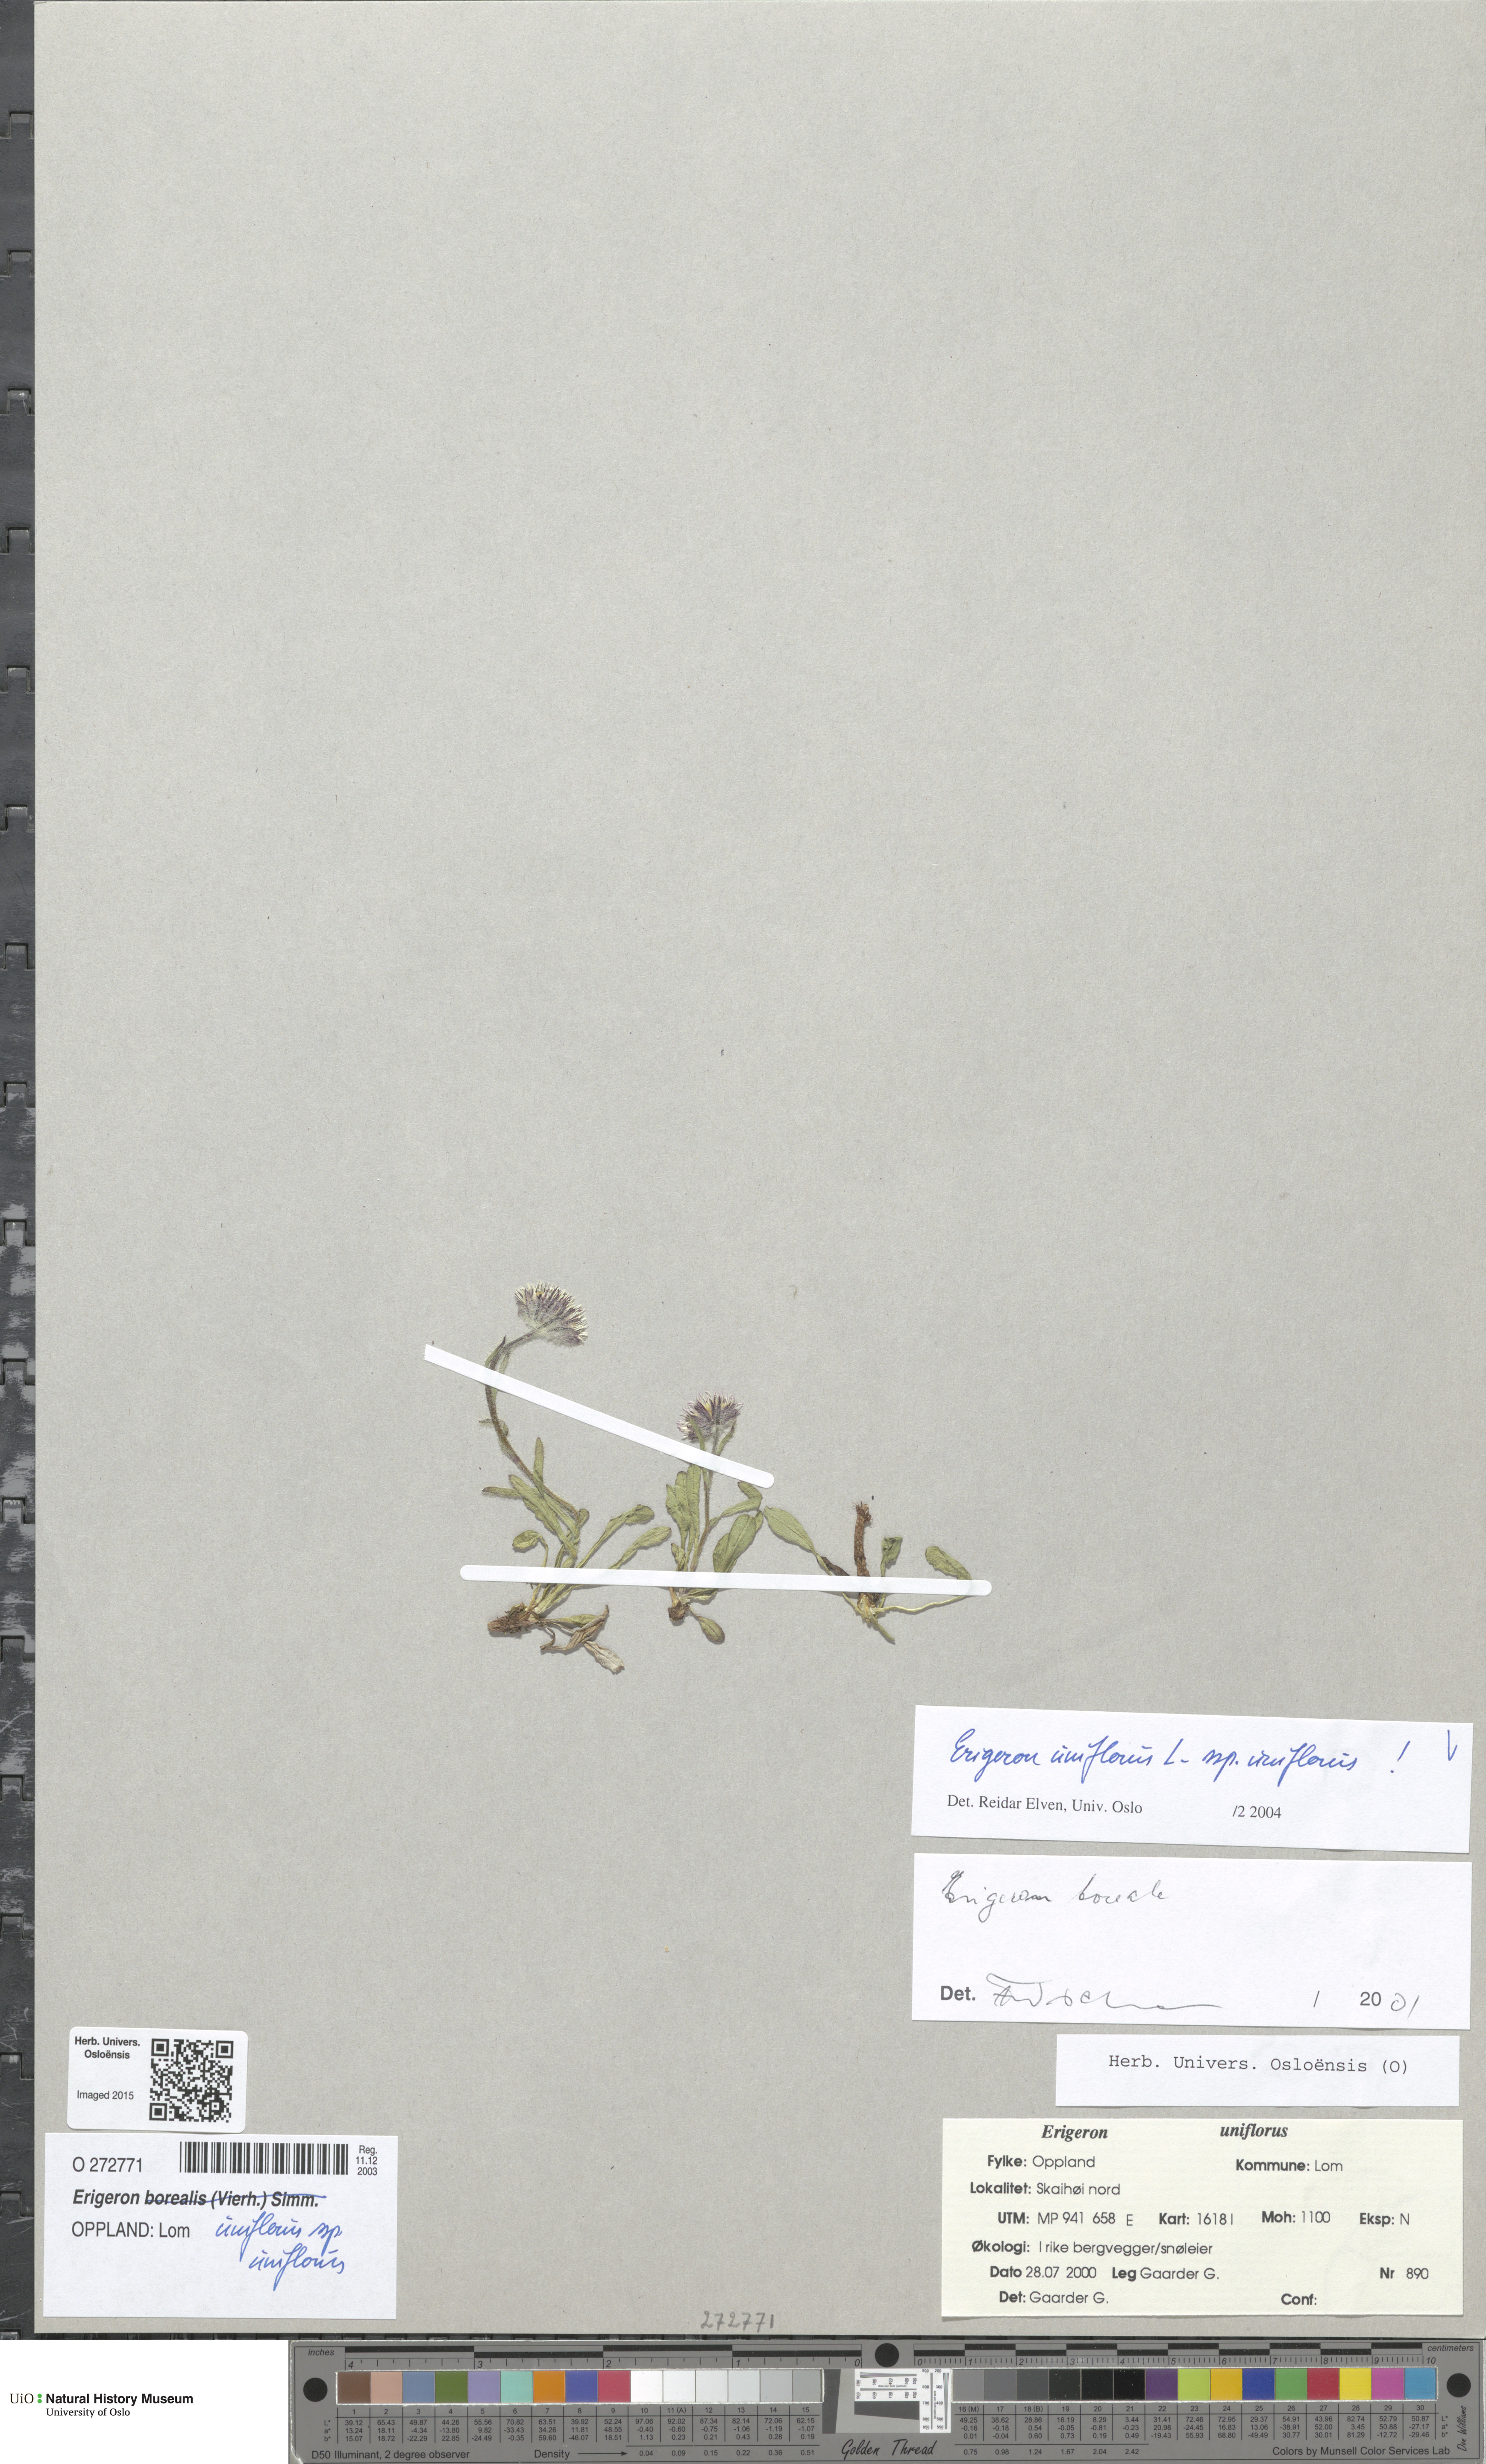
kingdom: Plantae
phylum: Tracheophyta
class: Magnoliopsida
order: Asterales
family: Asteraceae
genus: Erigeron
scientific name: Erigeron uniflorus
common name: Northern daisy
